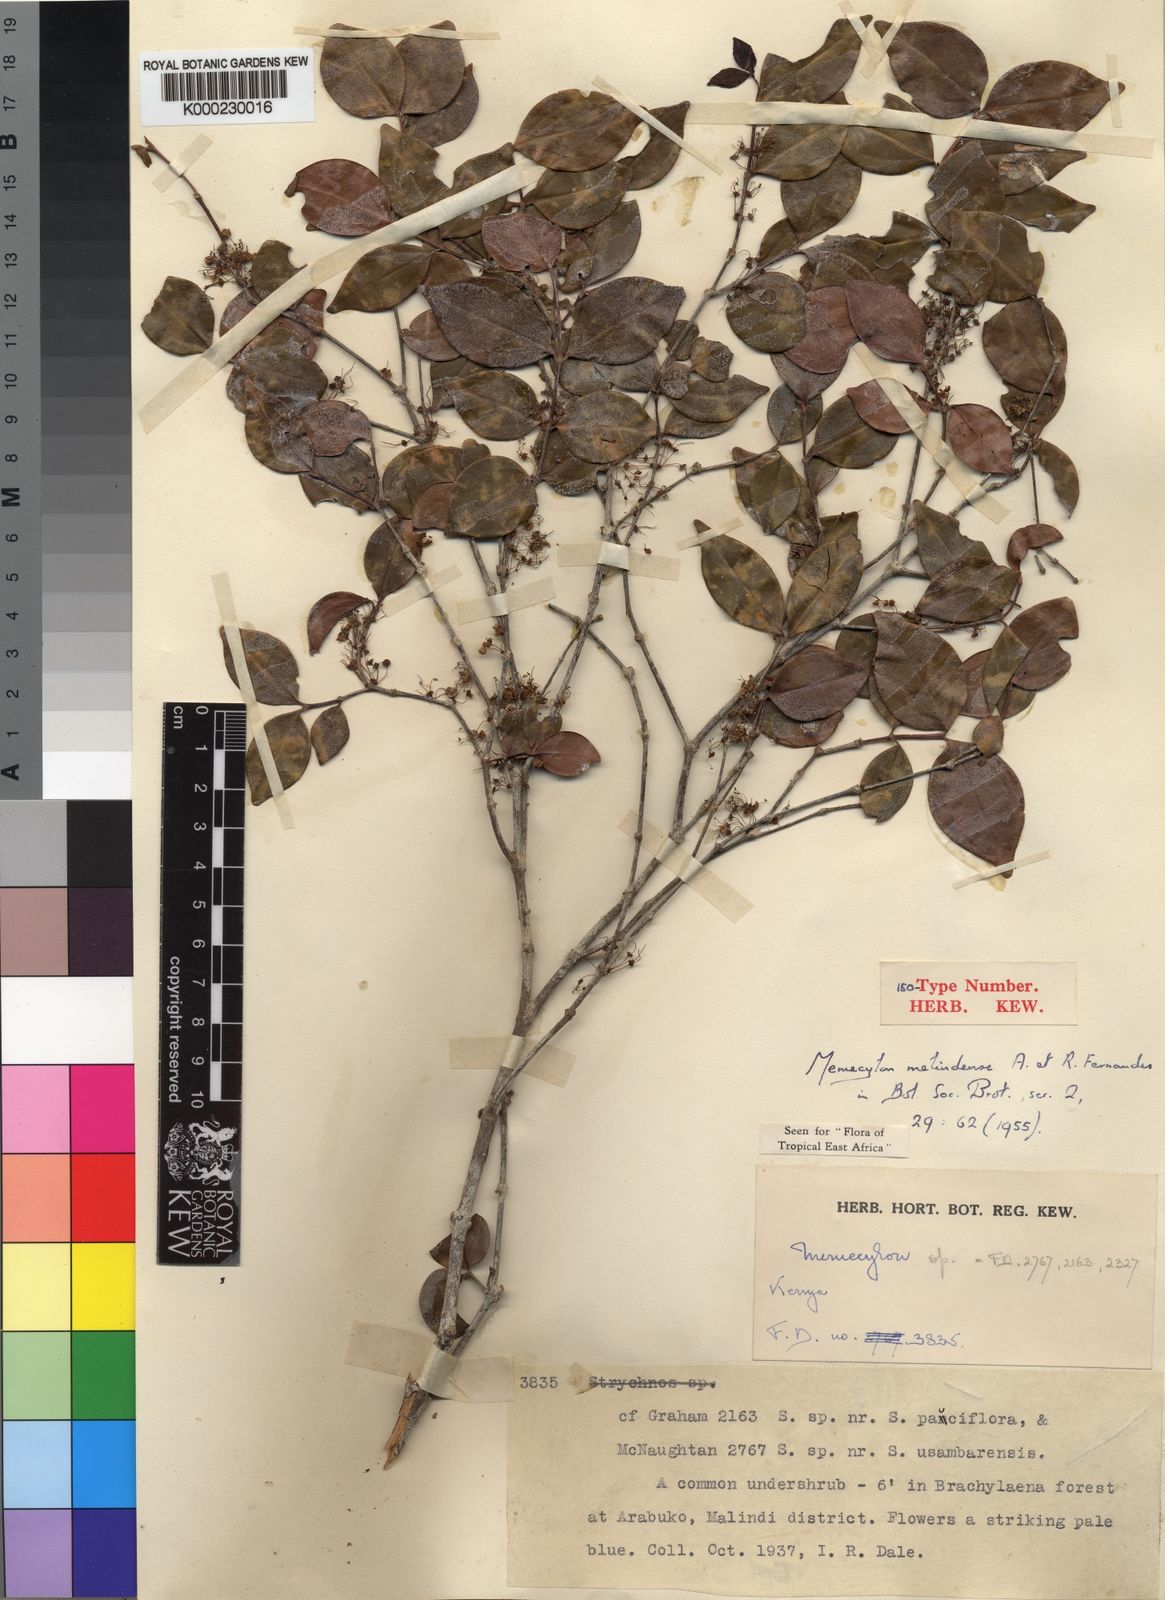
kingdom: Plantae
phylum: Tracheophyta
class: Magnoliopsida
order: Myrtales
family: Melastomataceae
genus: Warneckea
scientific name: Warneckea sansibarica
